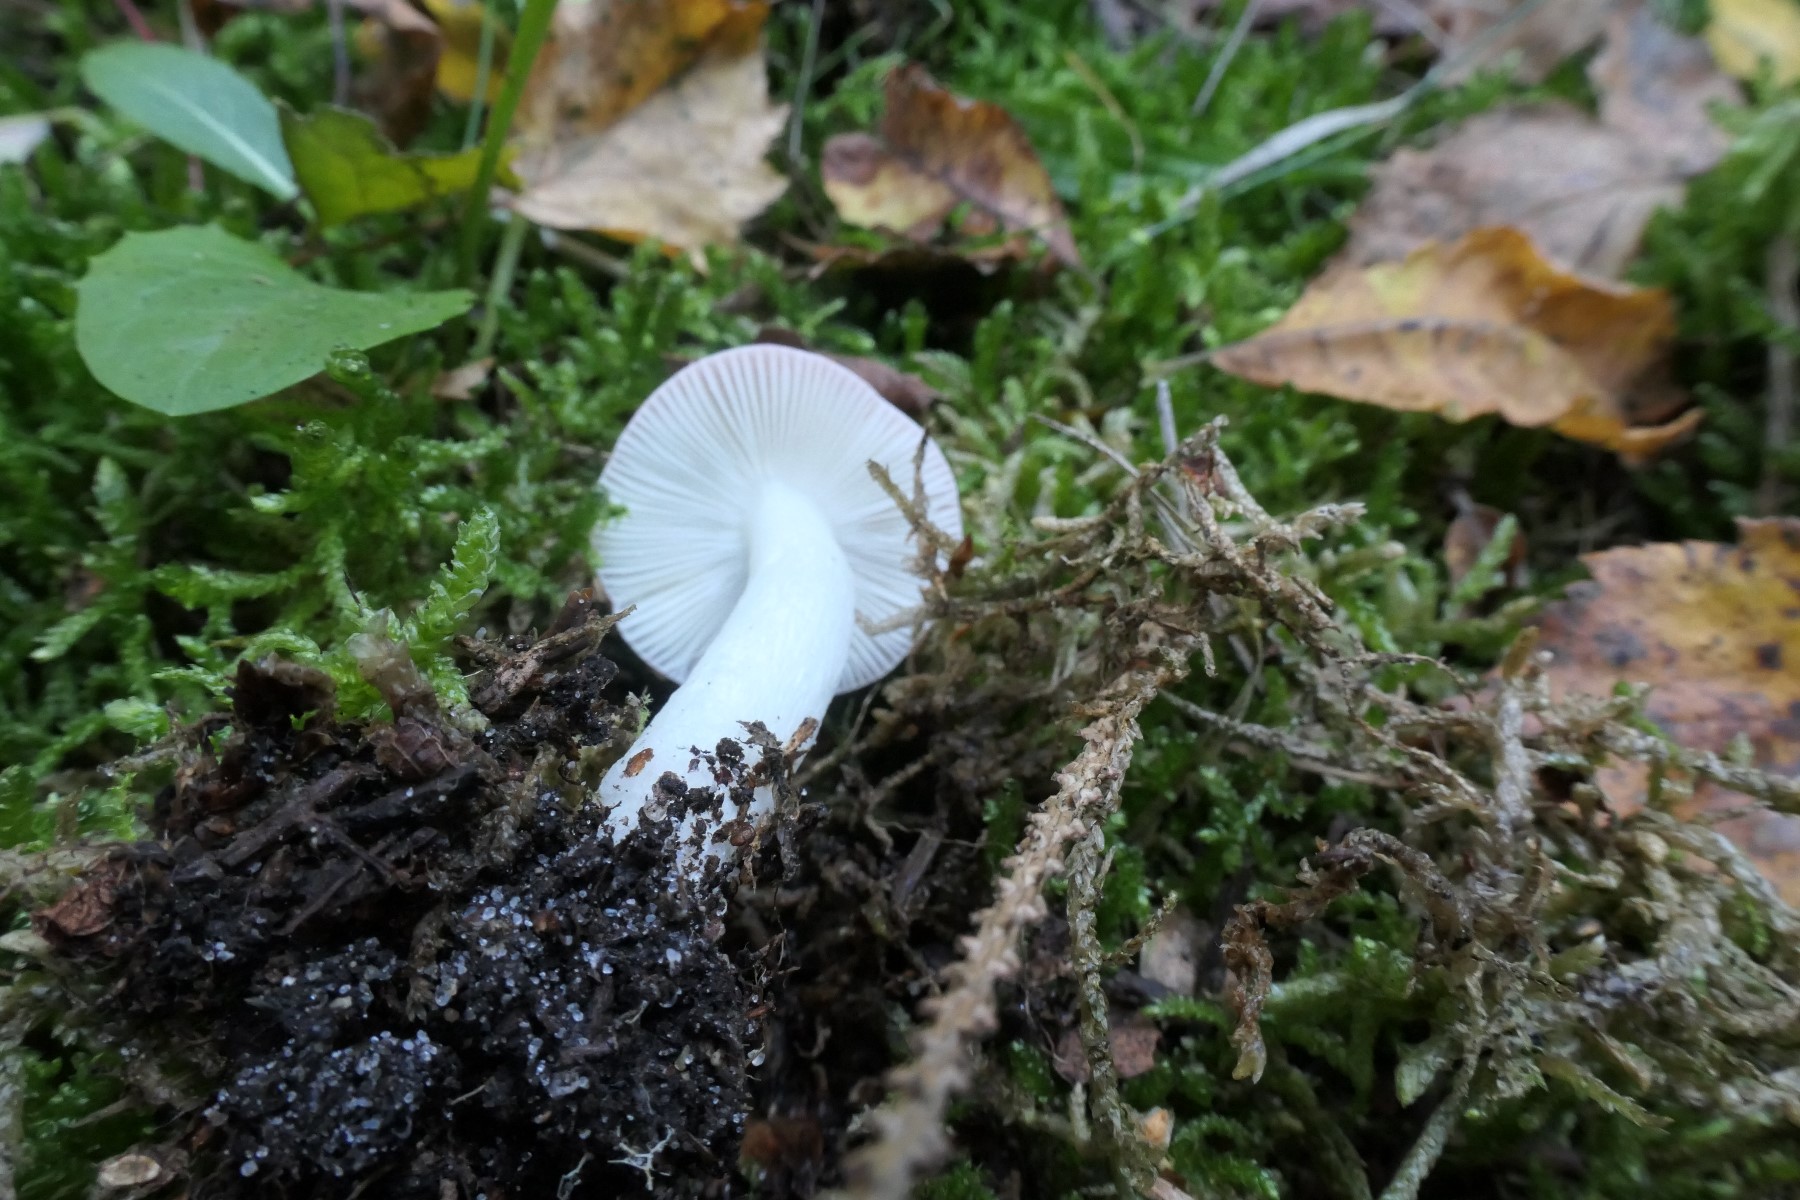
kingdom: Fungi
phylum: Basidiomycota
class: Agaricomycetes
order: Russulales
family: Russulaceae
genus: Russula
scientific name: Russula betularum
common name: bleg gift-skørhat
